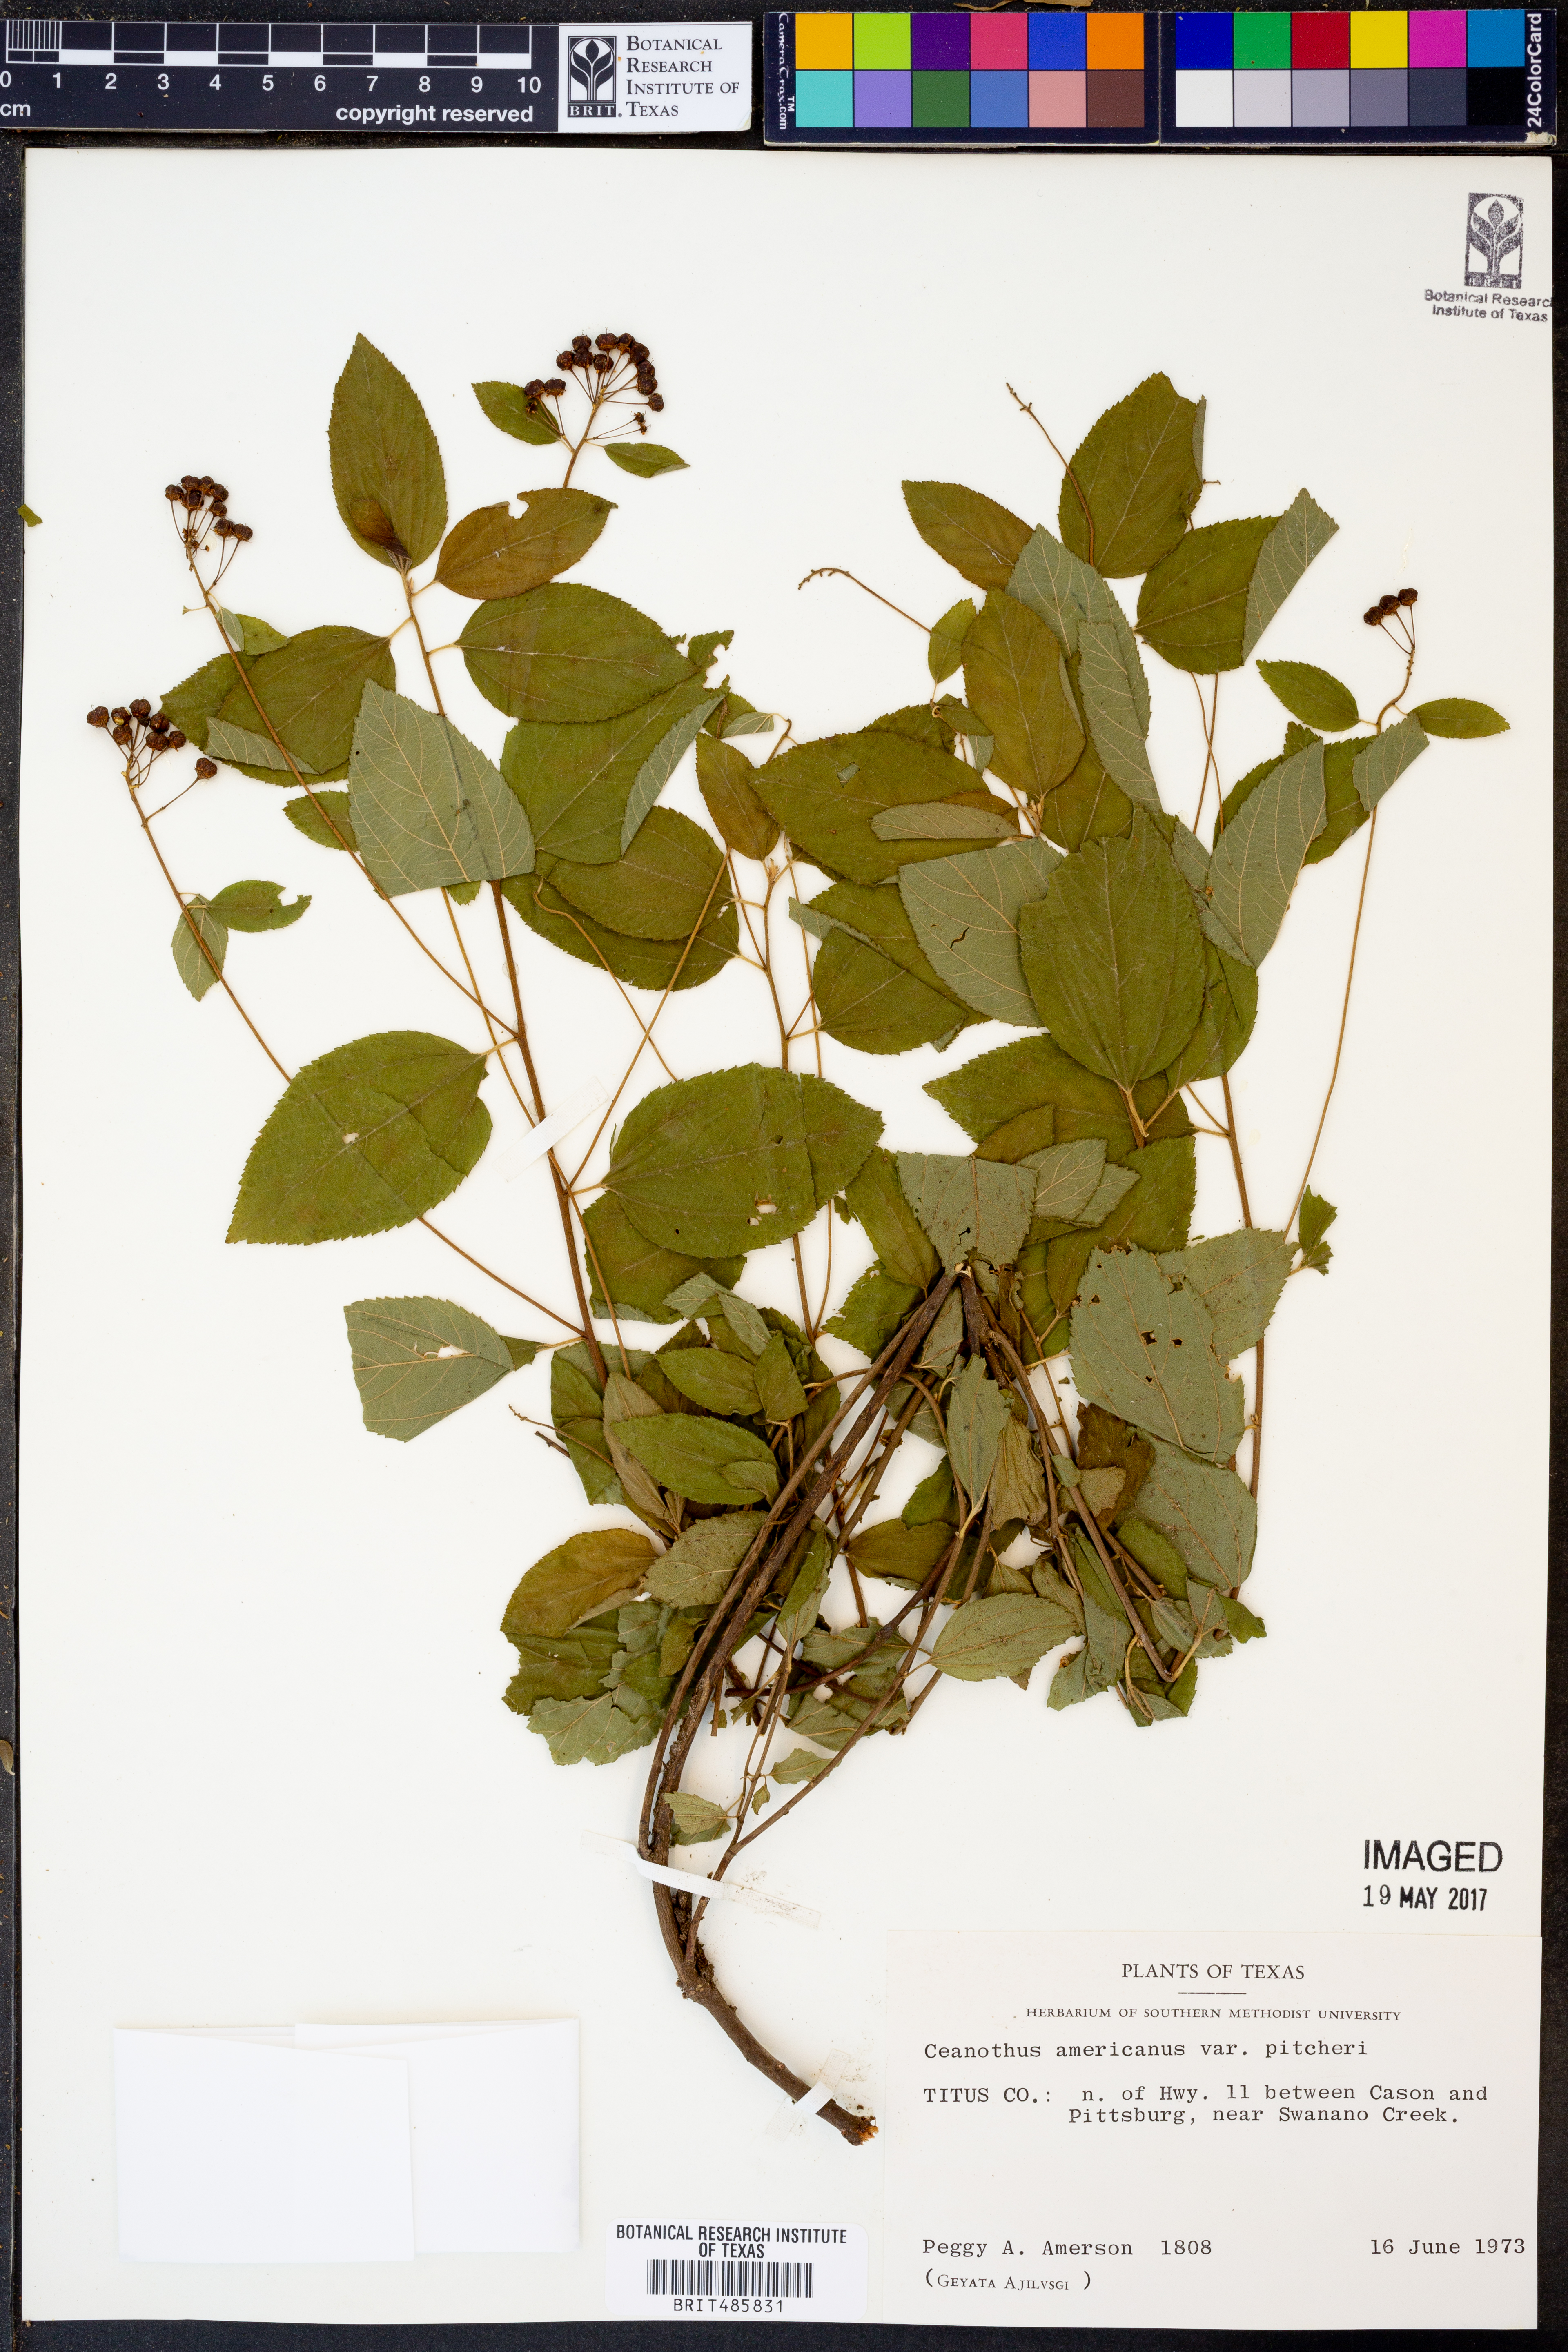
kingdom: Plantae
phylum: Tracheophyta
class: Magnoliopsida
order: Rosales
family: Rhamnaceae
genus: Ceanothus
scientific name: Ceanothus americanus
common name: Redroot
